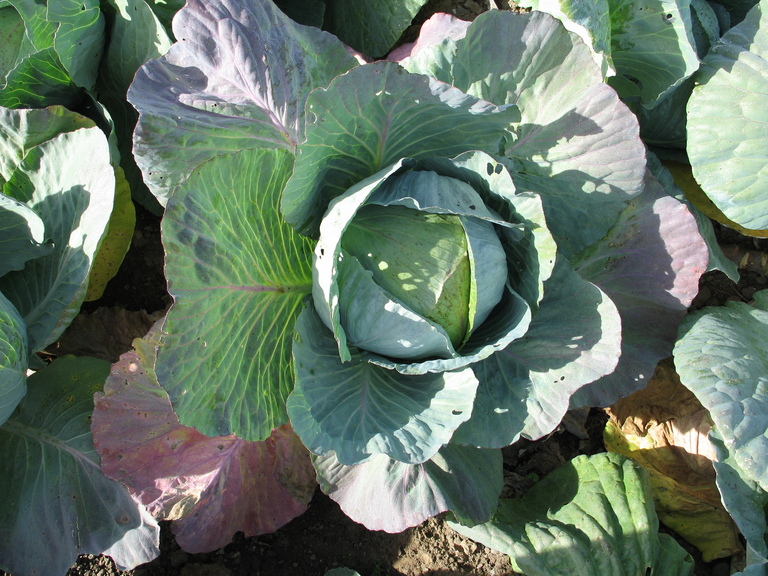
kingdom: Plantae
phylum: Tracheophyta
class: Magnoliopsida
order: Brassicales
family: Brassicaceae
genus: Brassica
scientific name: Brassica oleracea
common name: Cabbage
